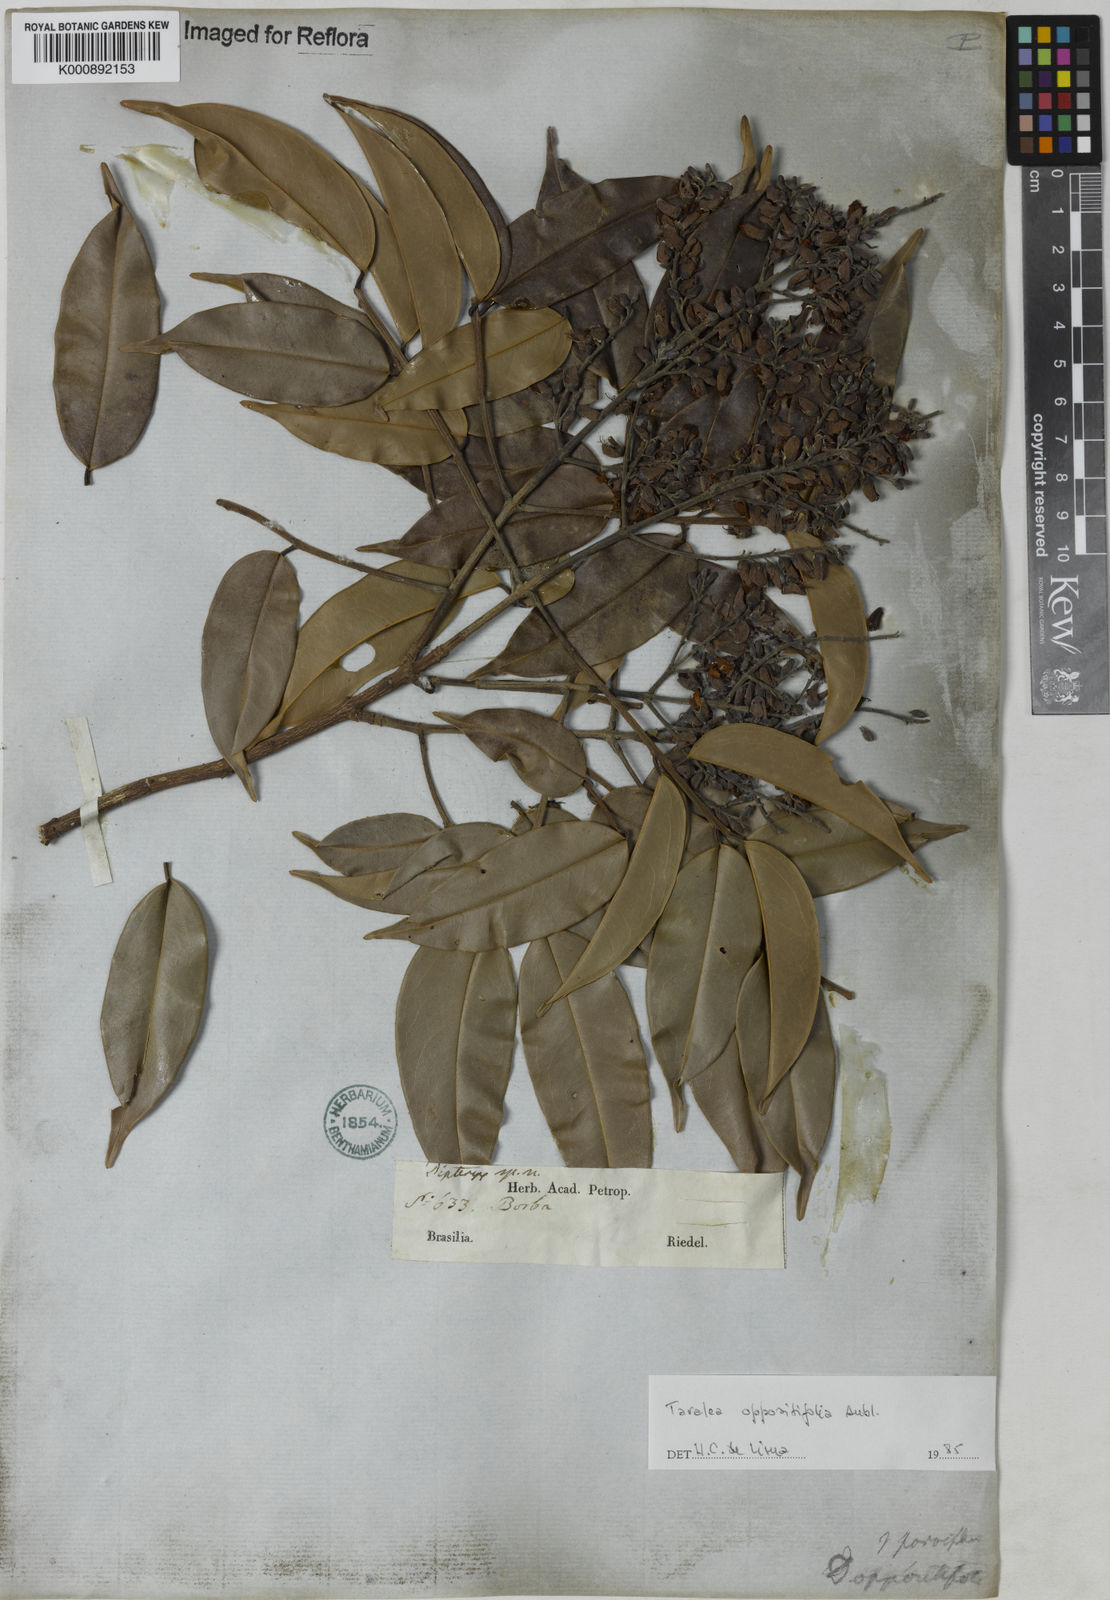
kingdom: Plantae
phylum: Tracheophyta
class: Magnoliopsida
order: Fabales
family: Fabaceae
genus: Taralea
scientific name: Taralea oppositifolia
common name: Tonka
